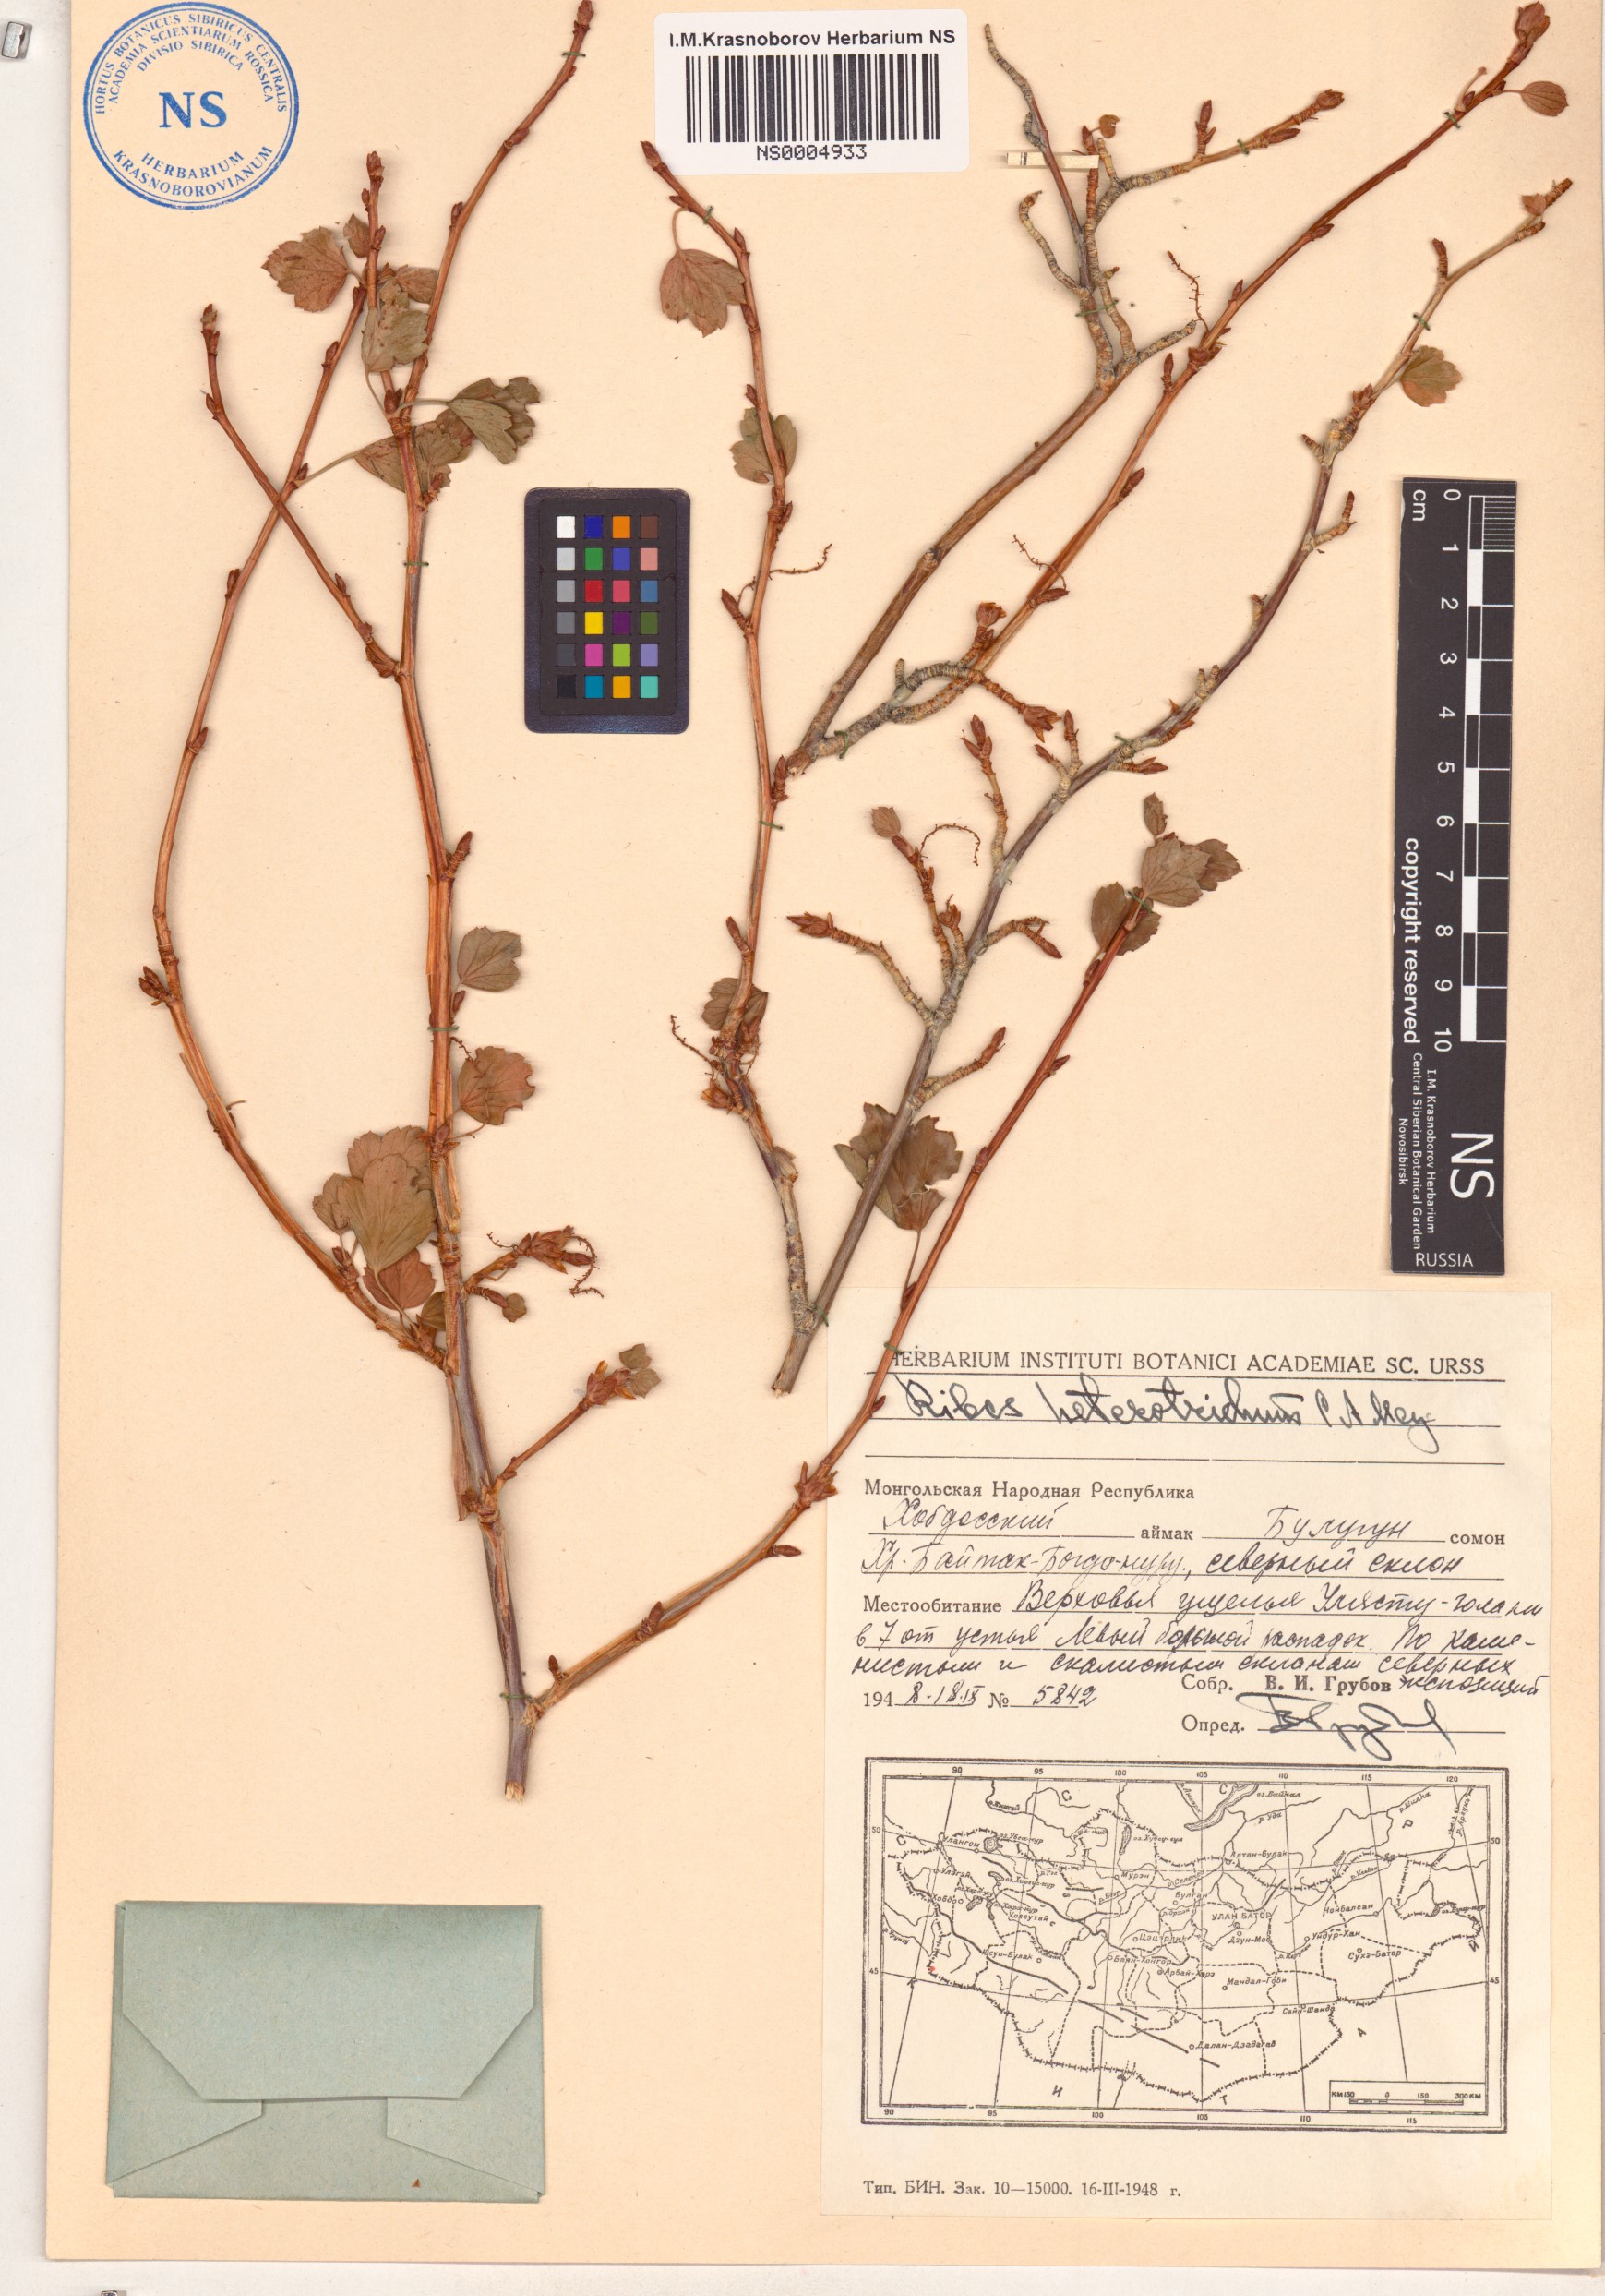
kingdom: Plantae
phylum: Tracheophyta
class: Magnoliopsida
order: Saxifragales
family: Grossulariaceae
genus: Ribes
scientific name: Ribes heterotrichum
